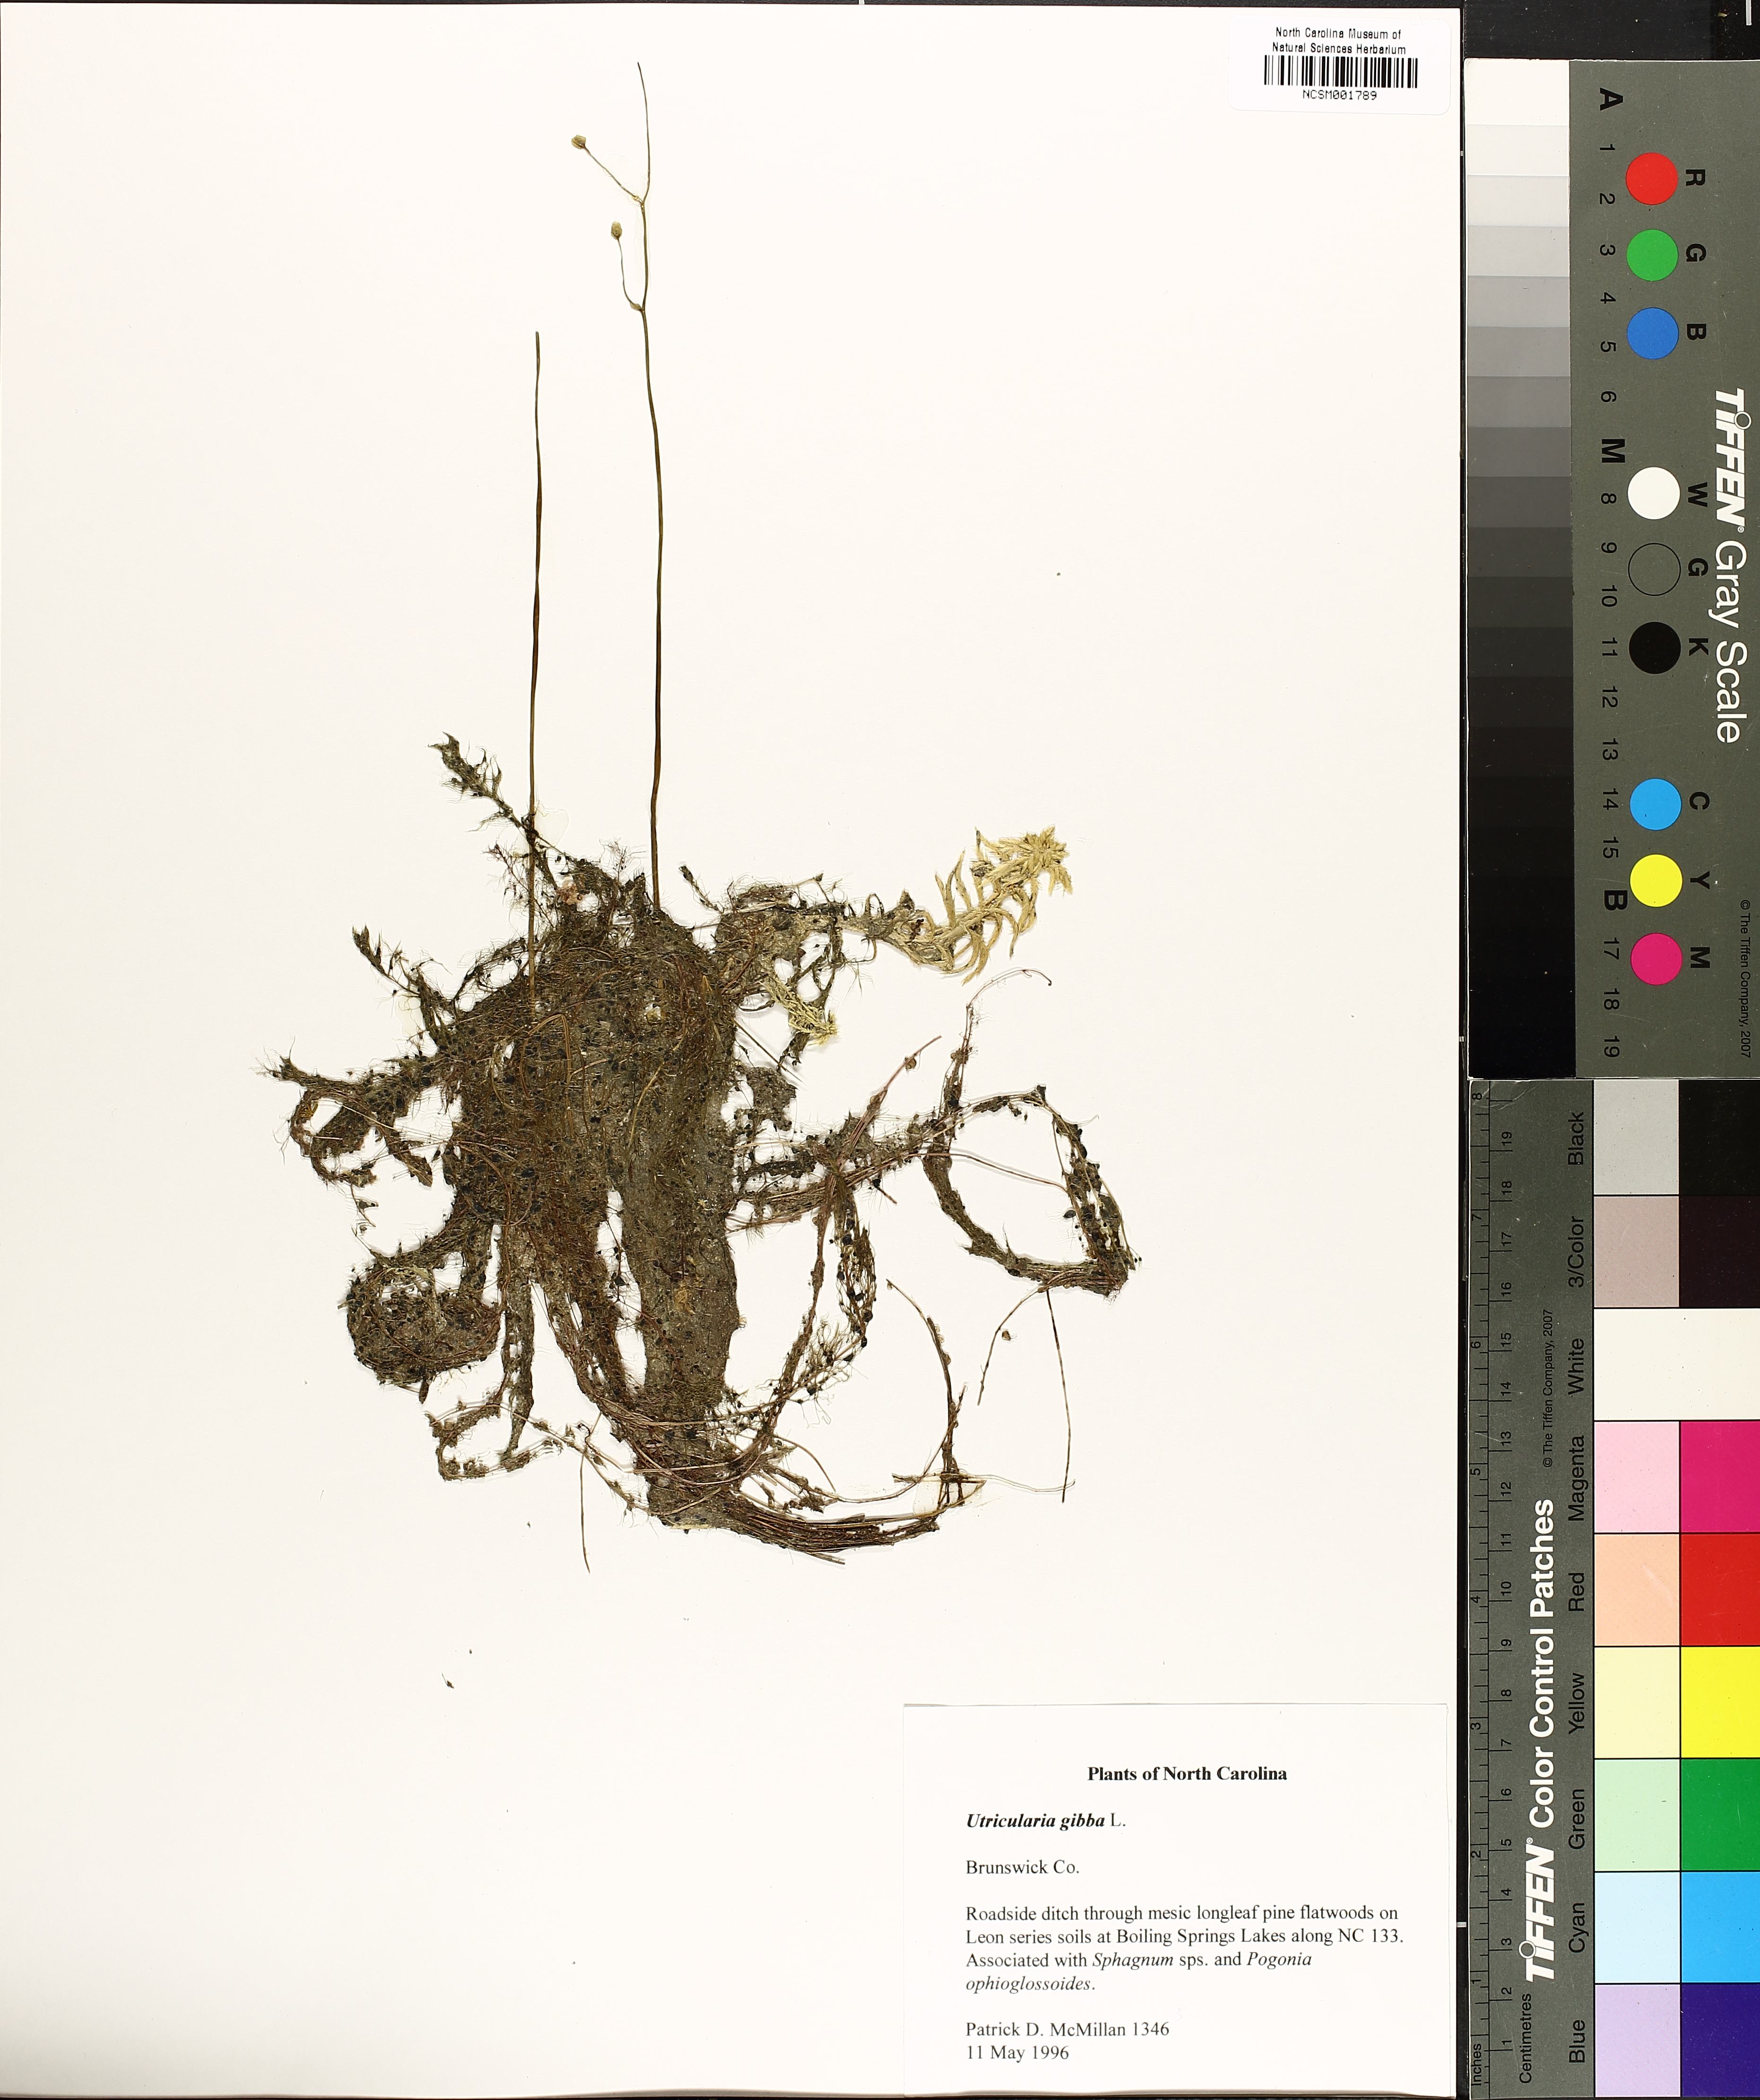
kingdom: Plantae
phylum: Tracheophyta
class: Magnoliopsida
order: Lamiales
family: Lentibulariaceae
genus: Utricularia
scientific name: Utricularia gibba
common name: Humped bladderwort
